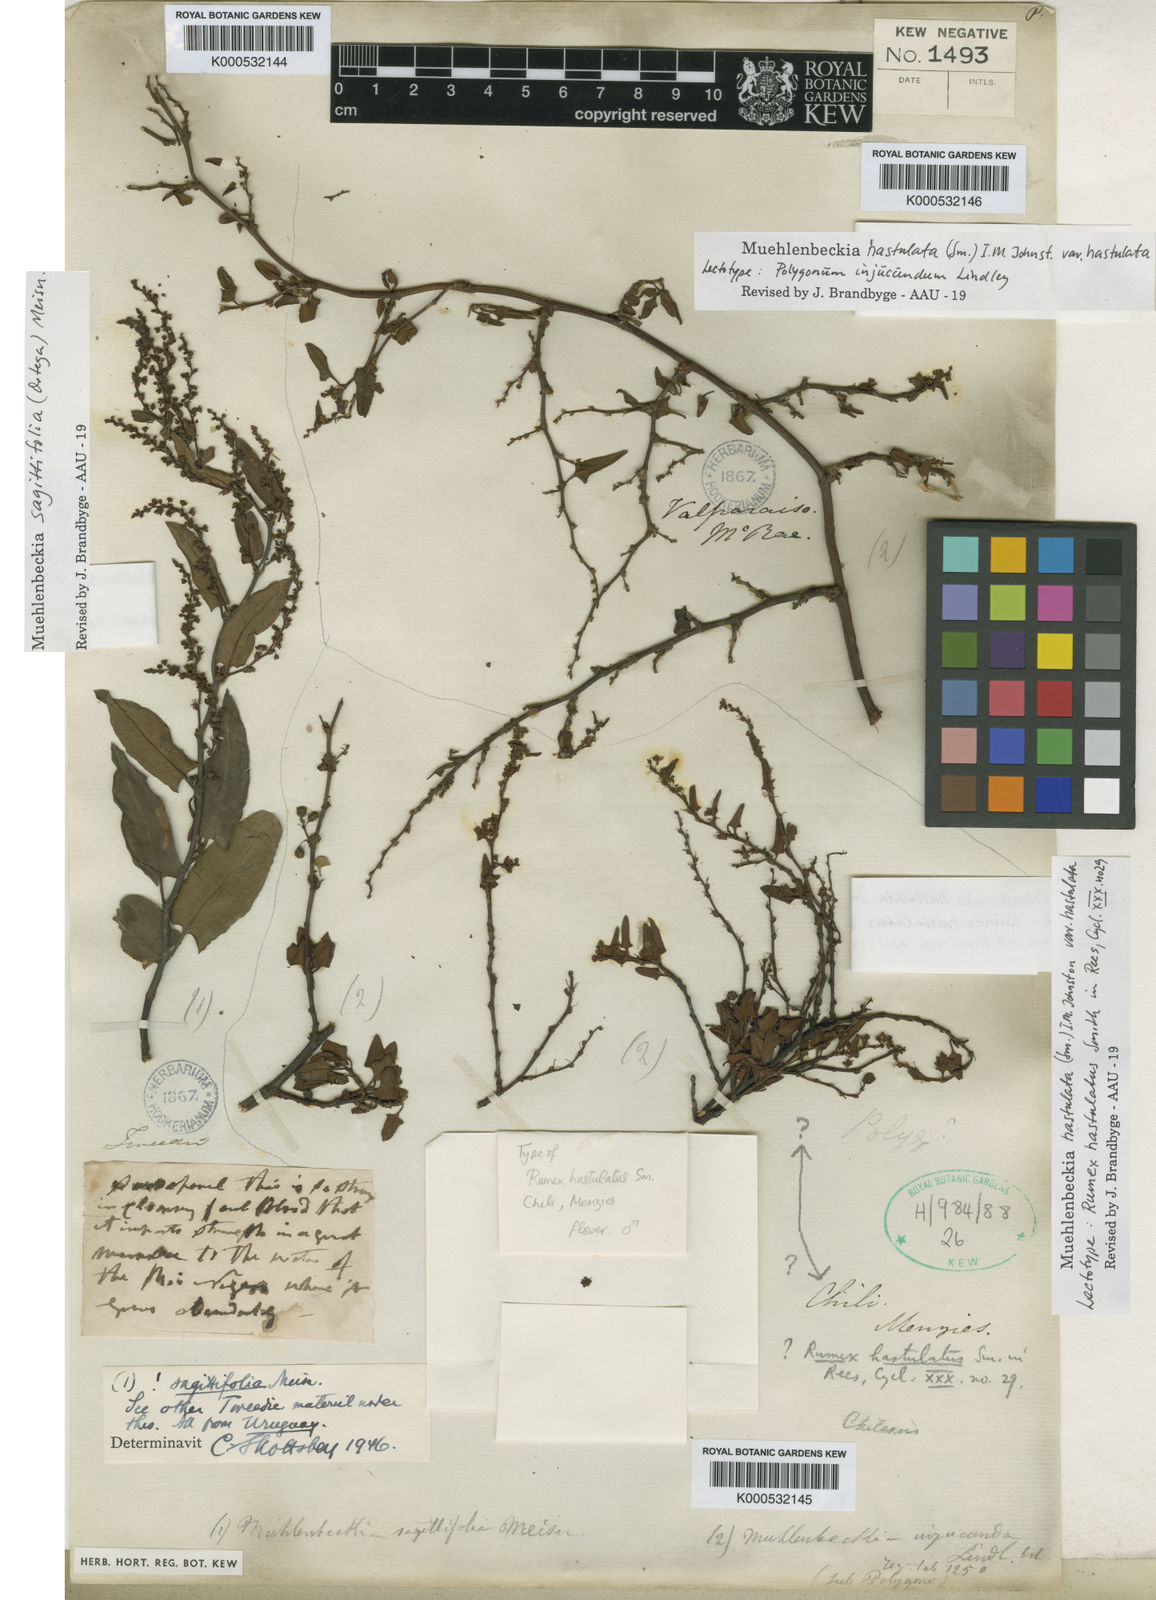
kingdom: Plantae
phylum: Tracheophyta
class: Magnoliopsida
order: Caryophyllales
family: Polygonaceae
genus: Muehlenbeckia
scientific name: Muehlenbeckia hastulata
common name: Wirevine
